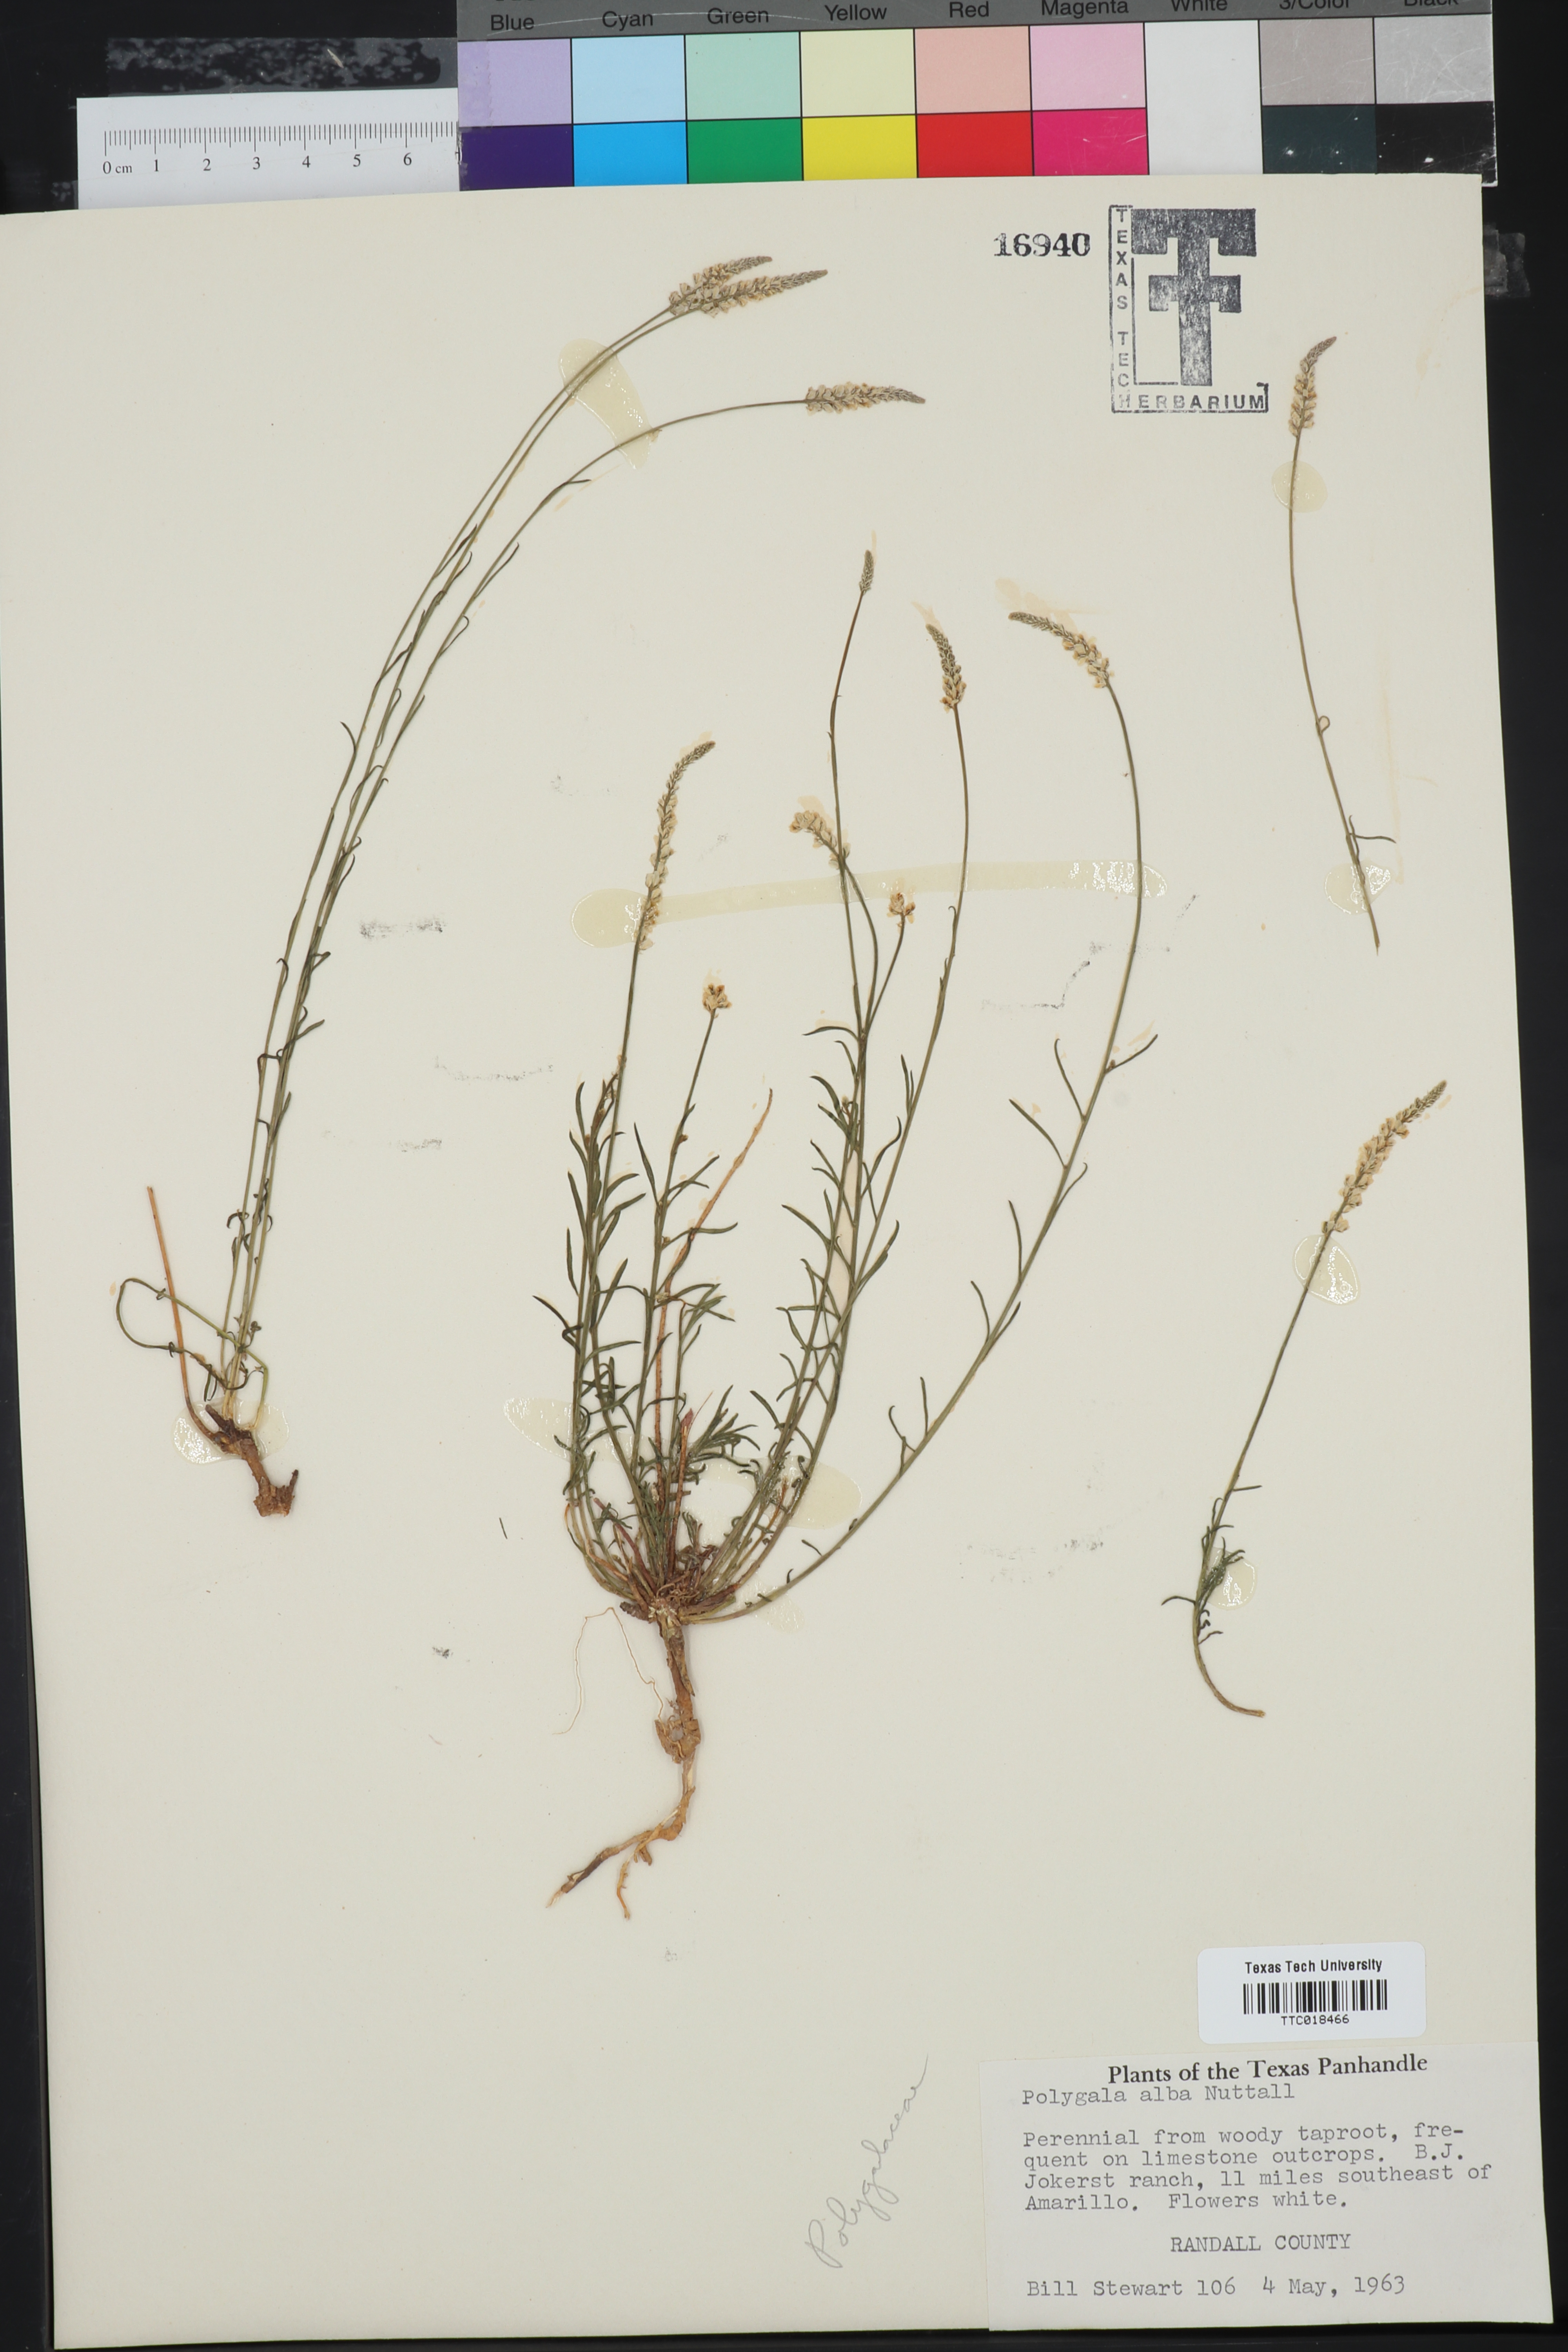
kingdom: Plantae
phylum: Tracheophyta
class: Magnoliopsida
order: Fabales
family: Polygalaceae
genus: Polygala
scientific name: Polygala alba
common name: White milkwort
